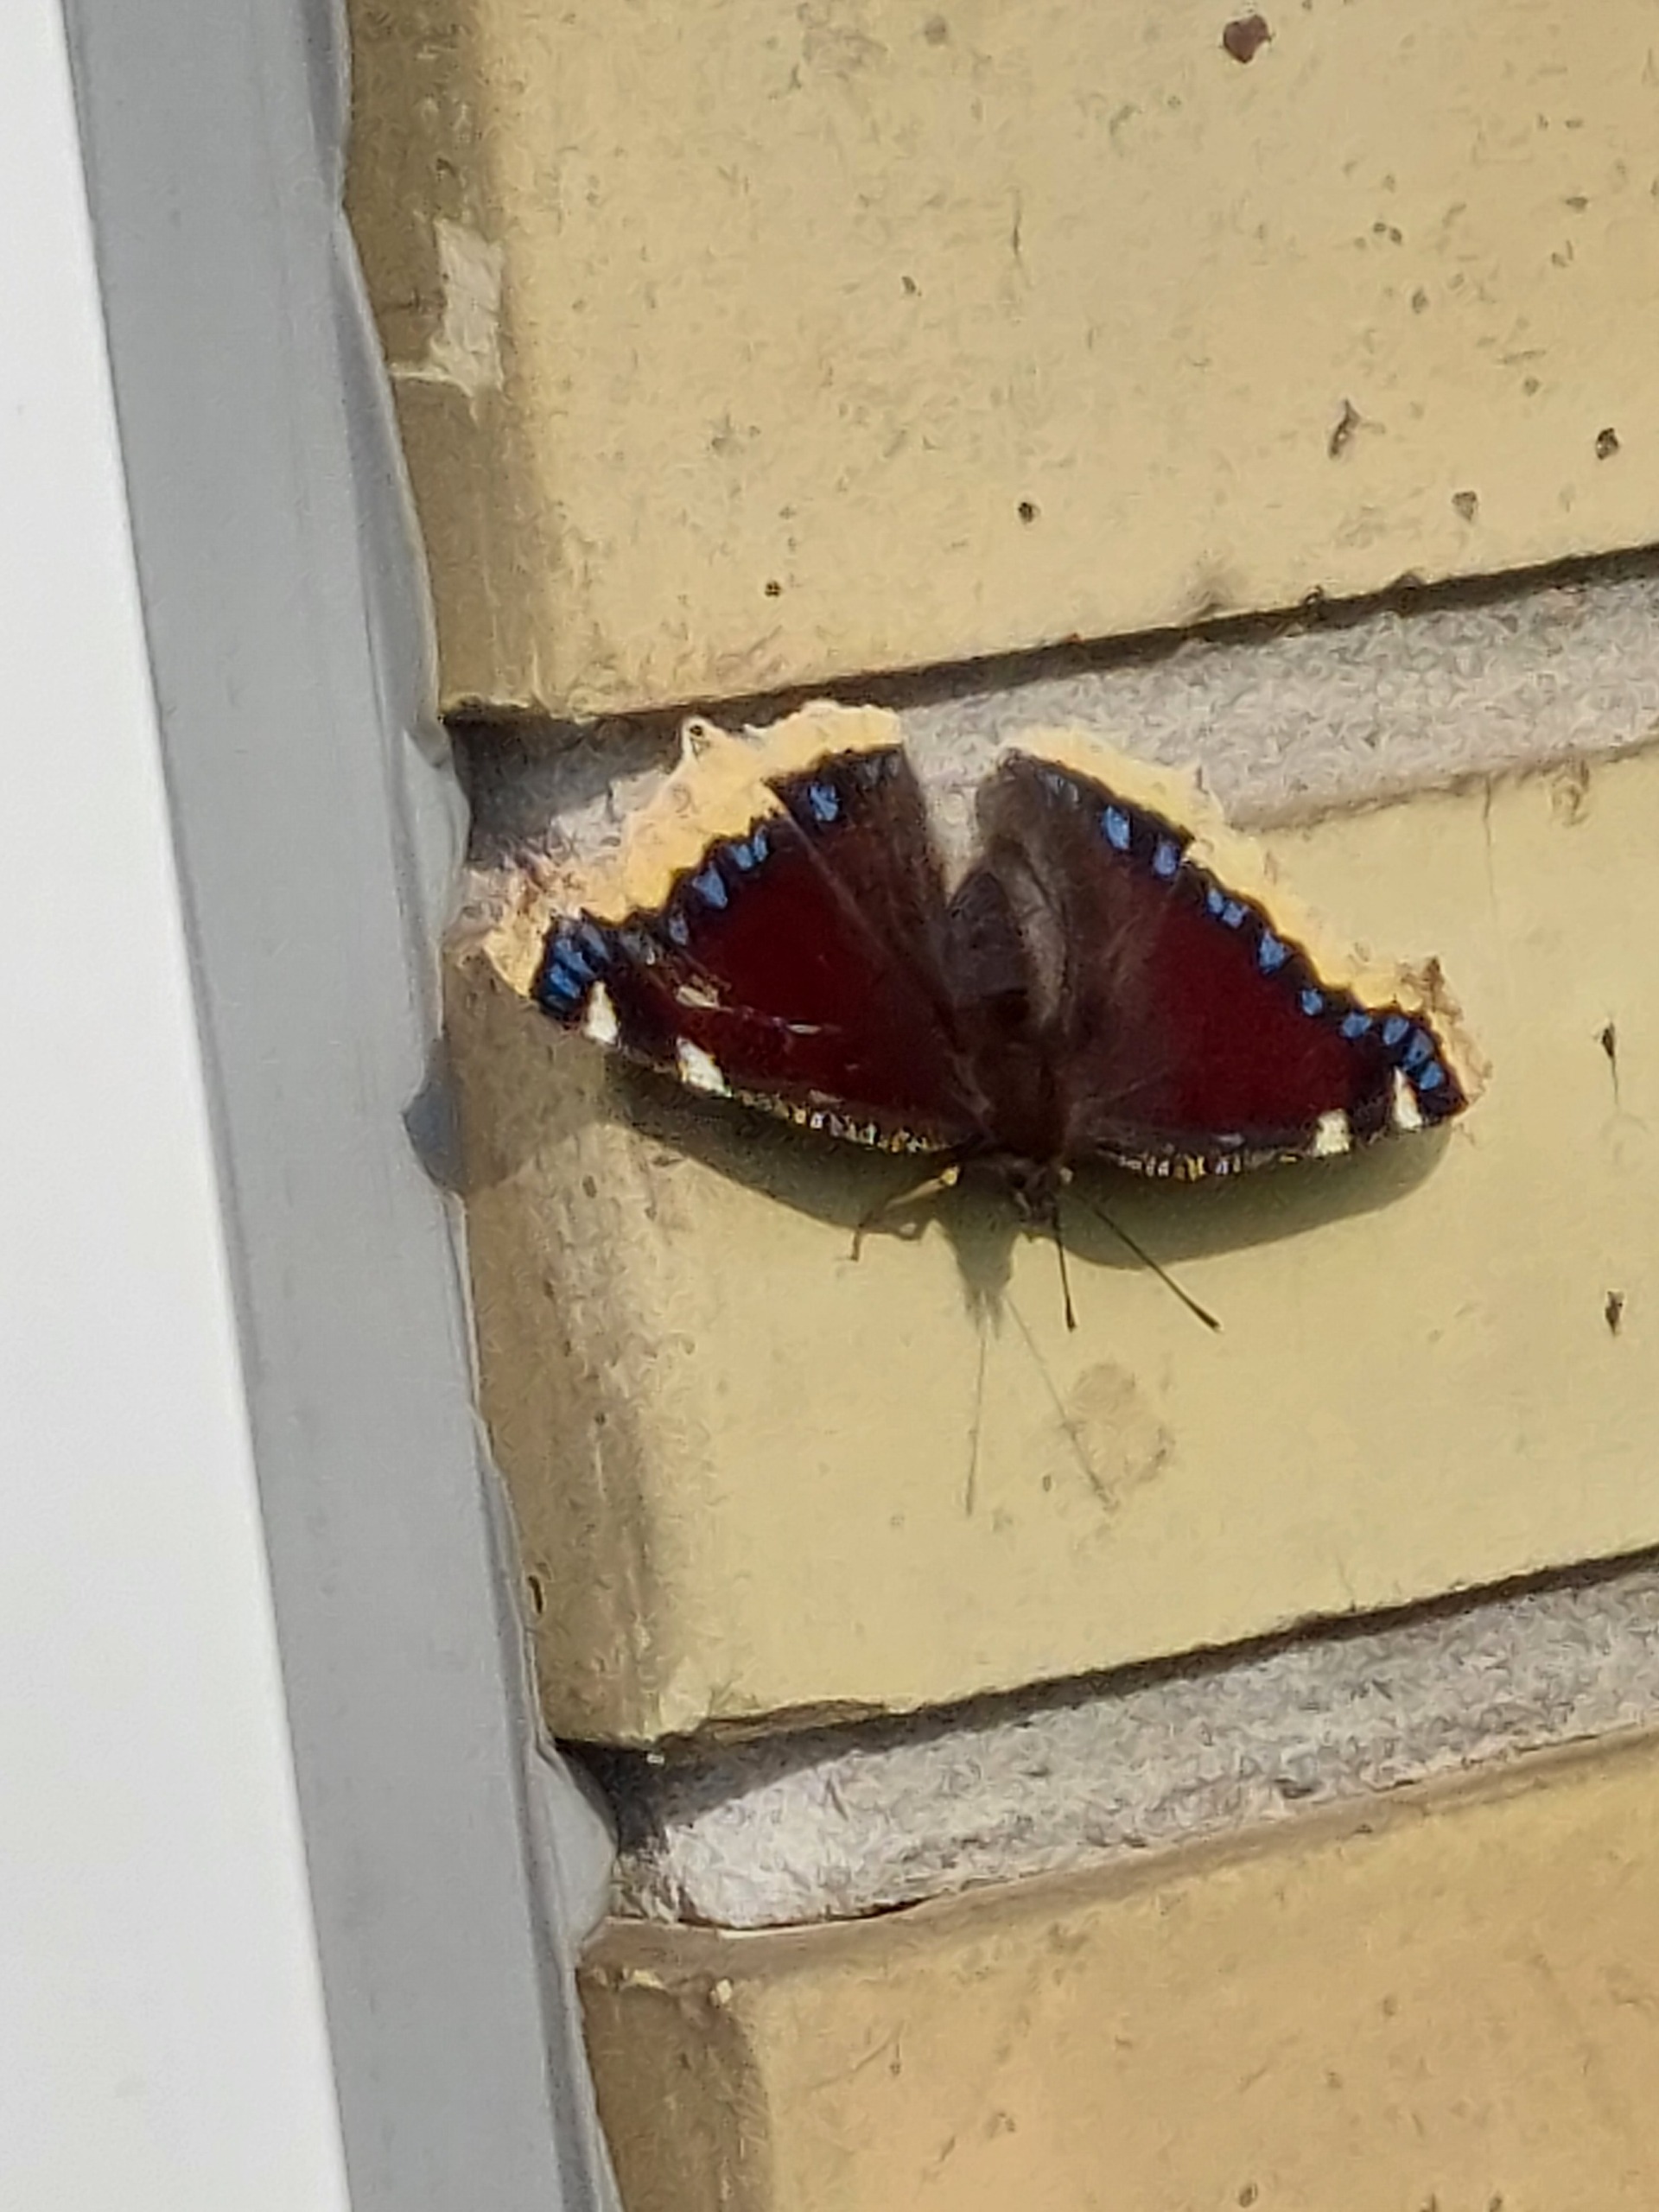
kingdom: Animalia
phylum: Arthropoda
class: Insecta
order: Lepidoptera
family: Nymphalidae
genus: Nymphalis
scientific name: Nymphalis antiopa
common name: Sørgekåbe
